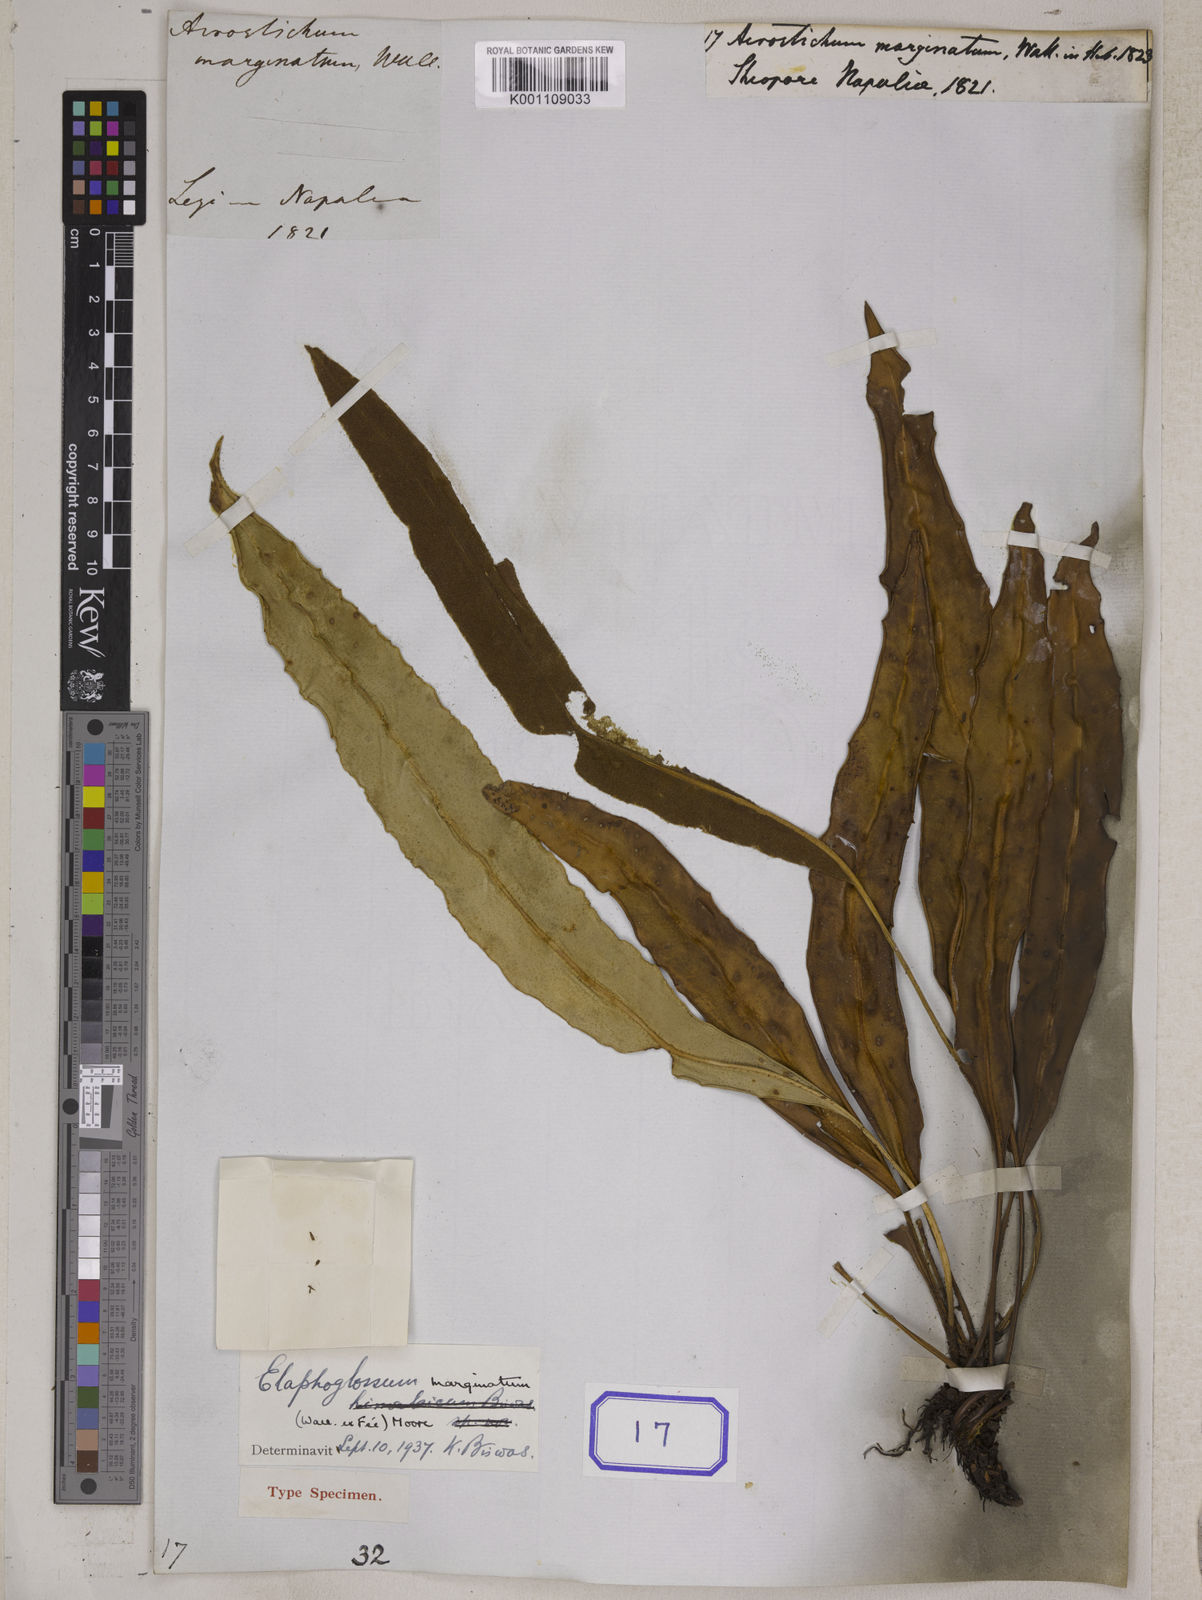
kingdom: Plantae
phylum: Tracheophyta
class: Polypodiopsida
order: Polypodiales
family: Dryopteridaceae
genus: Elaphoglossum
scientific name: Elaphoglossum marginatum
